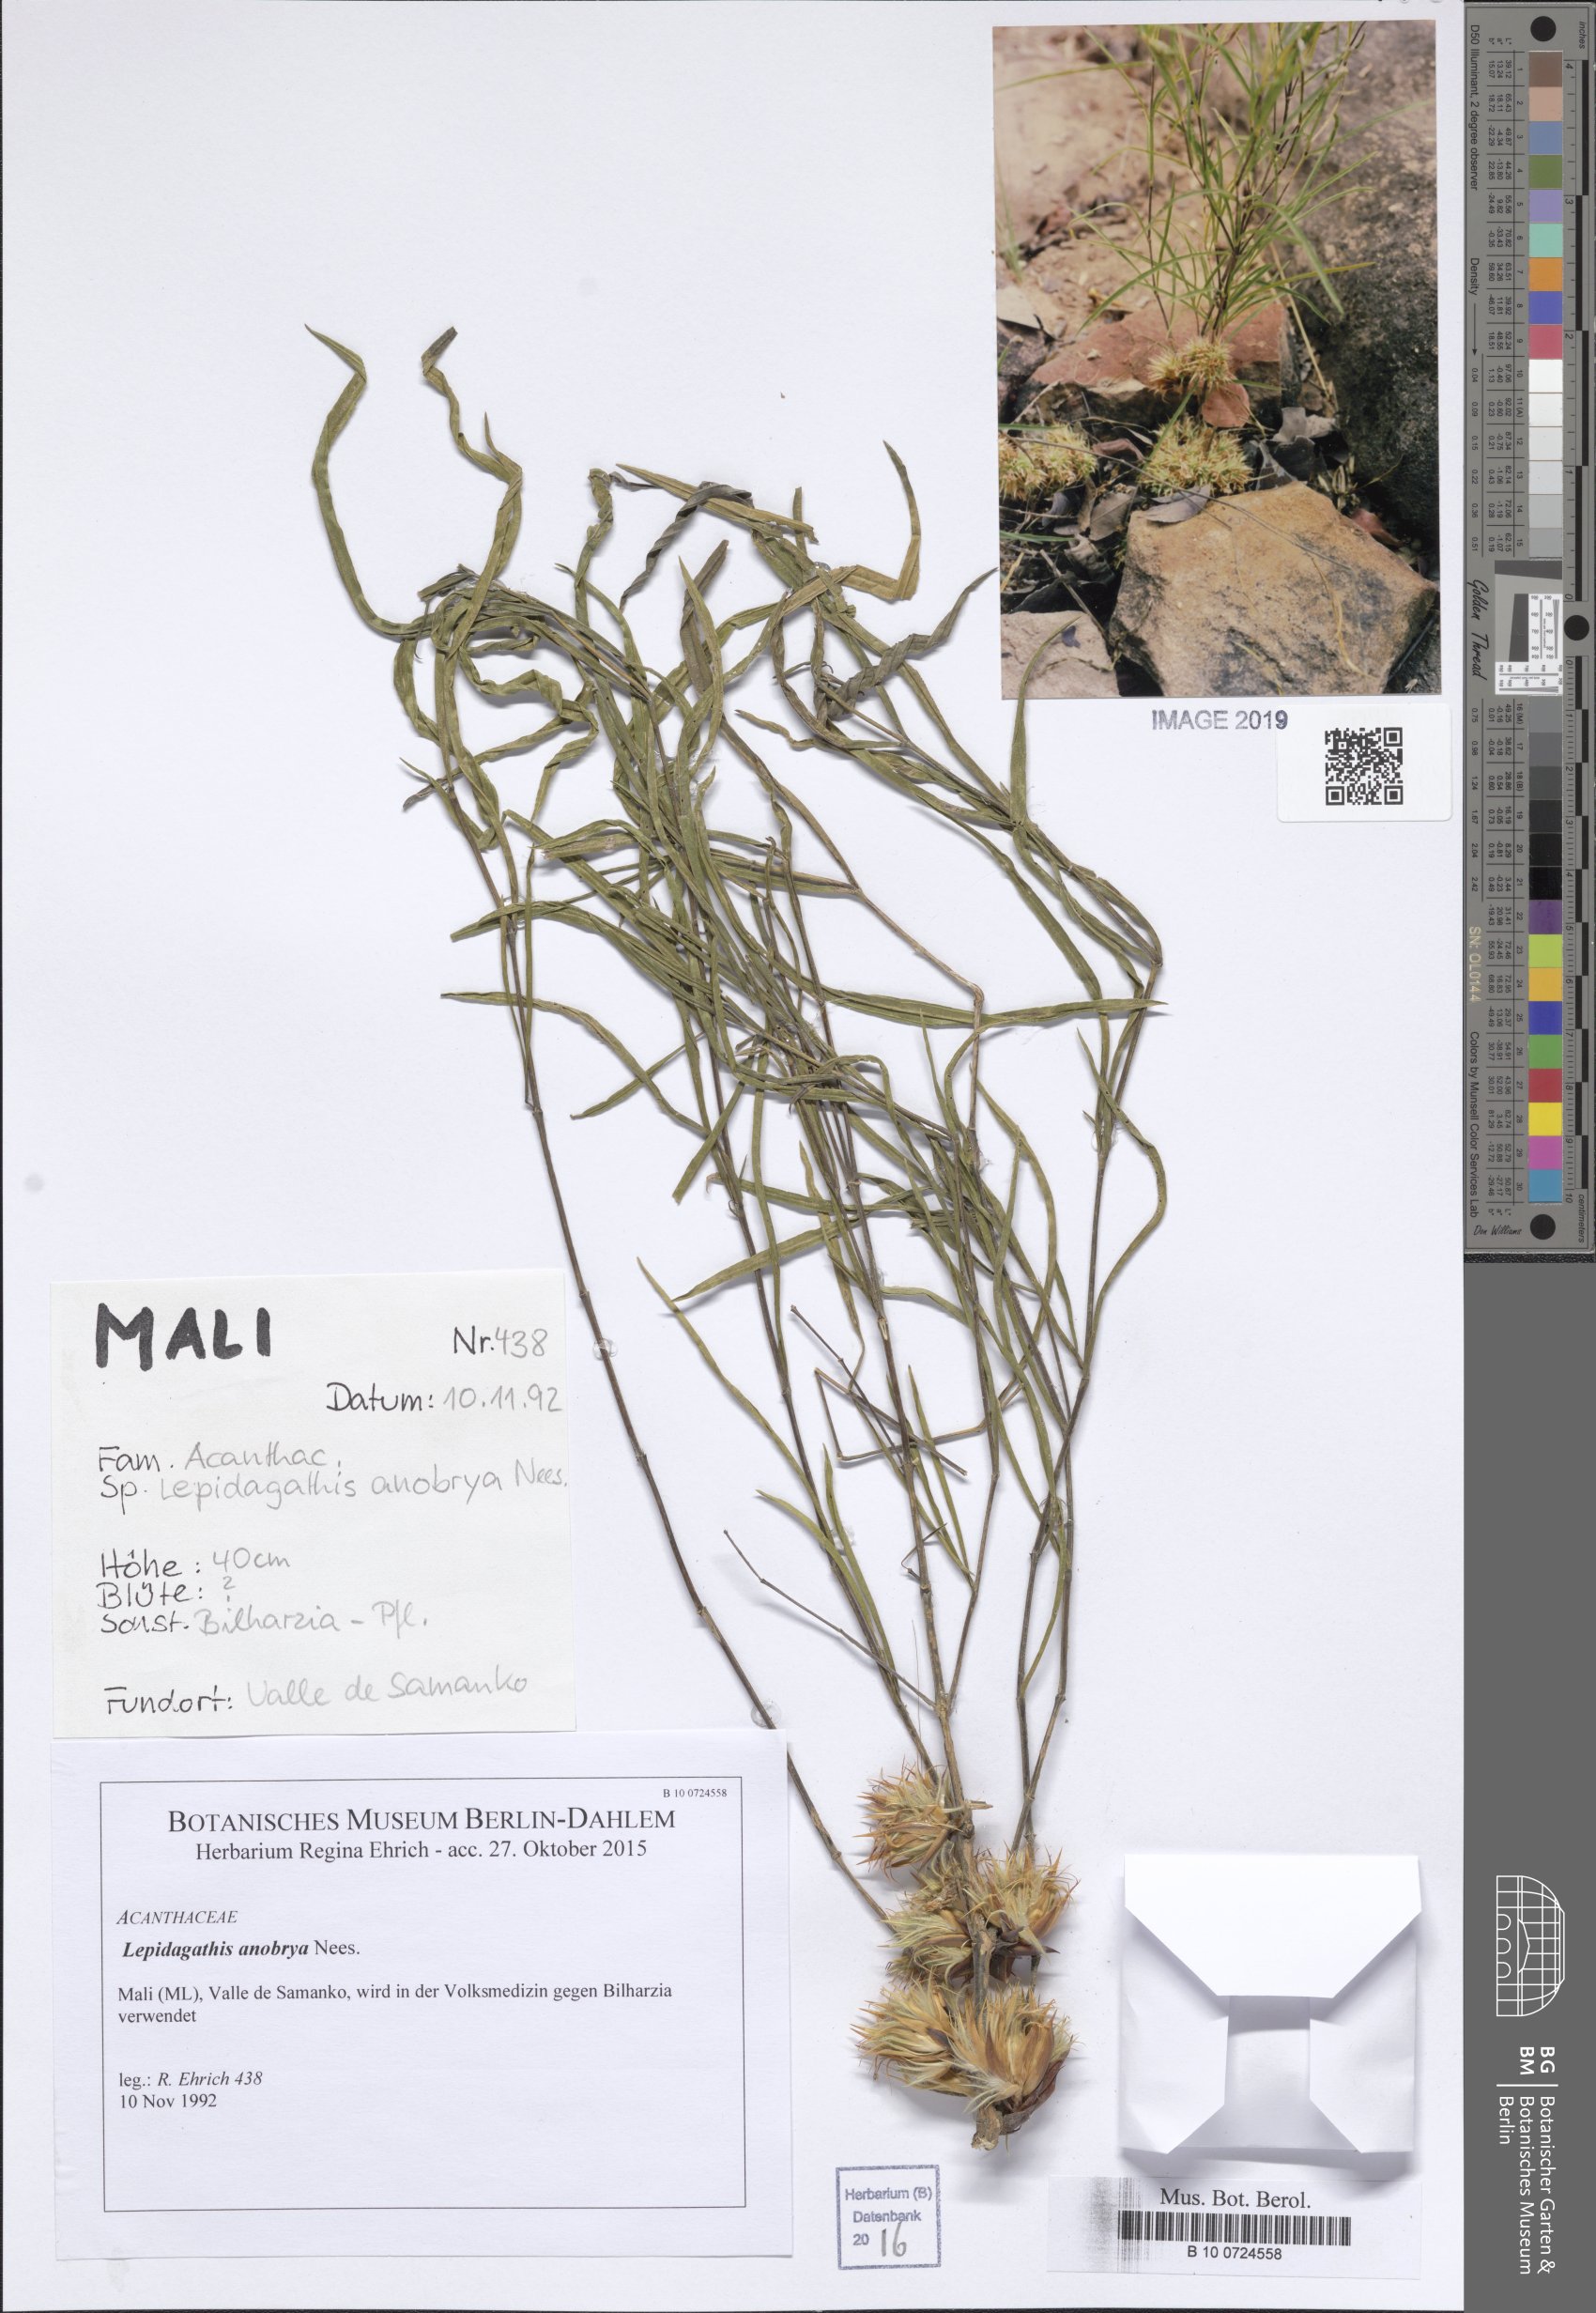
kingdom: Plantae
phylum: Tracheophyta
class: Magnoliopsida
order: Lamiales
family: Acanthaceae
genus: Lepidagathis
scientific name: Lepidagathis anobrya
